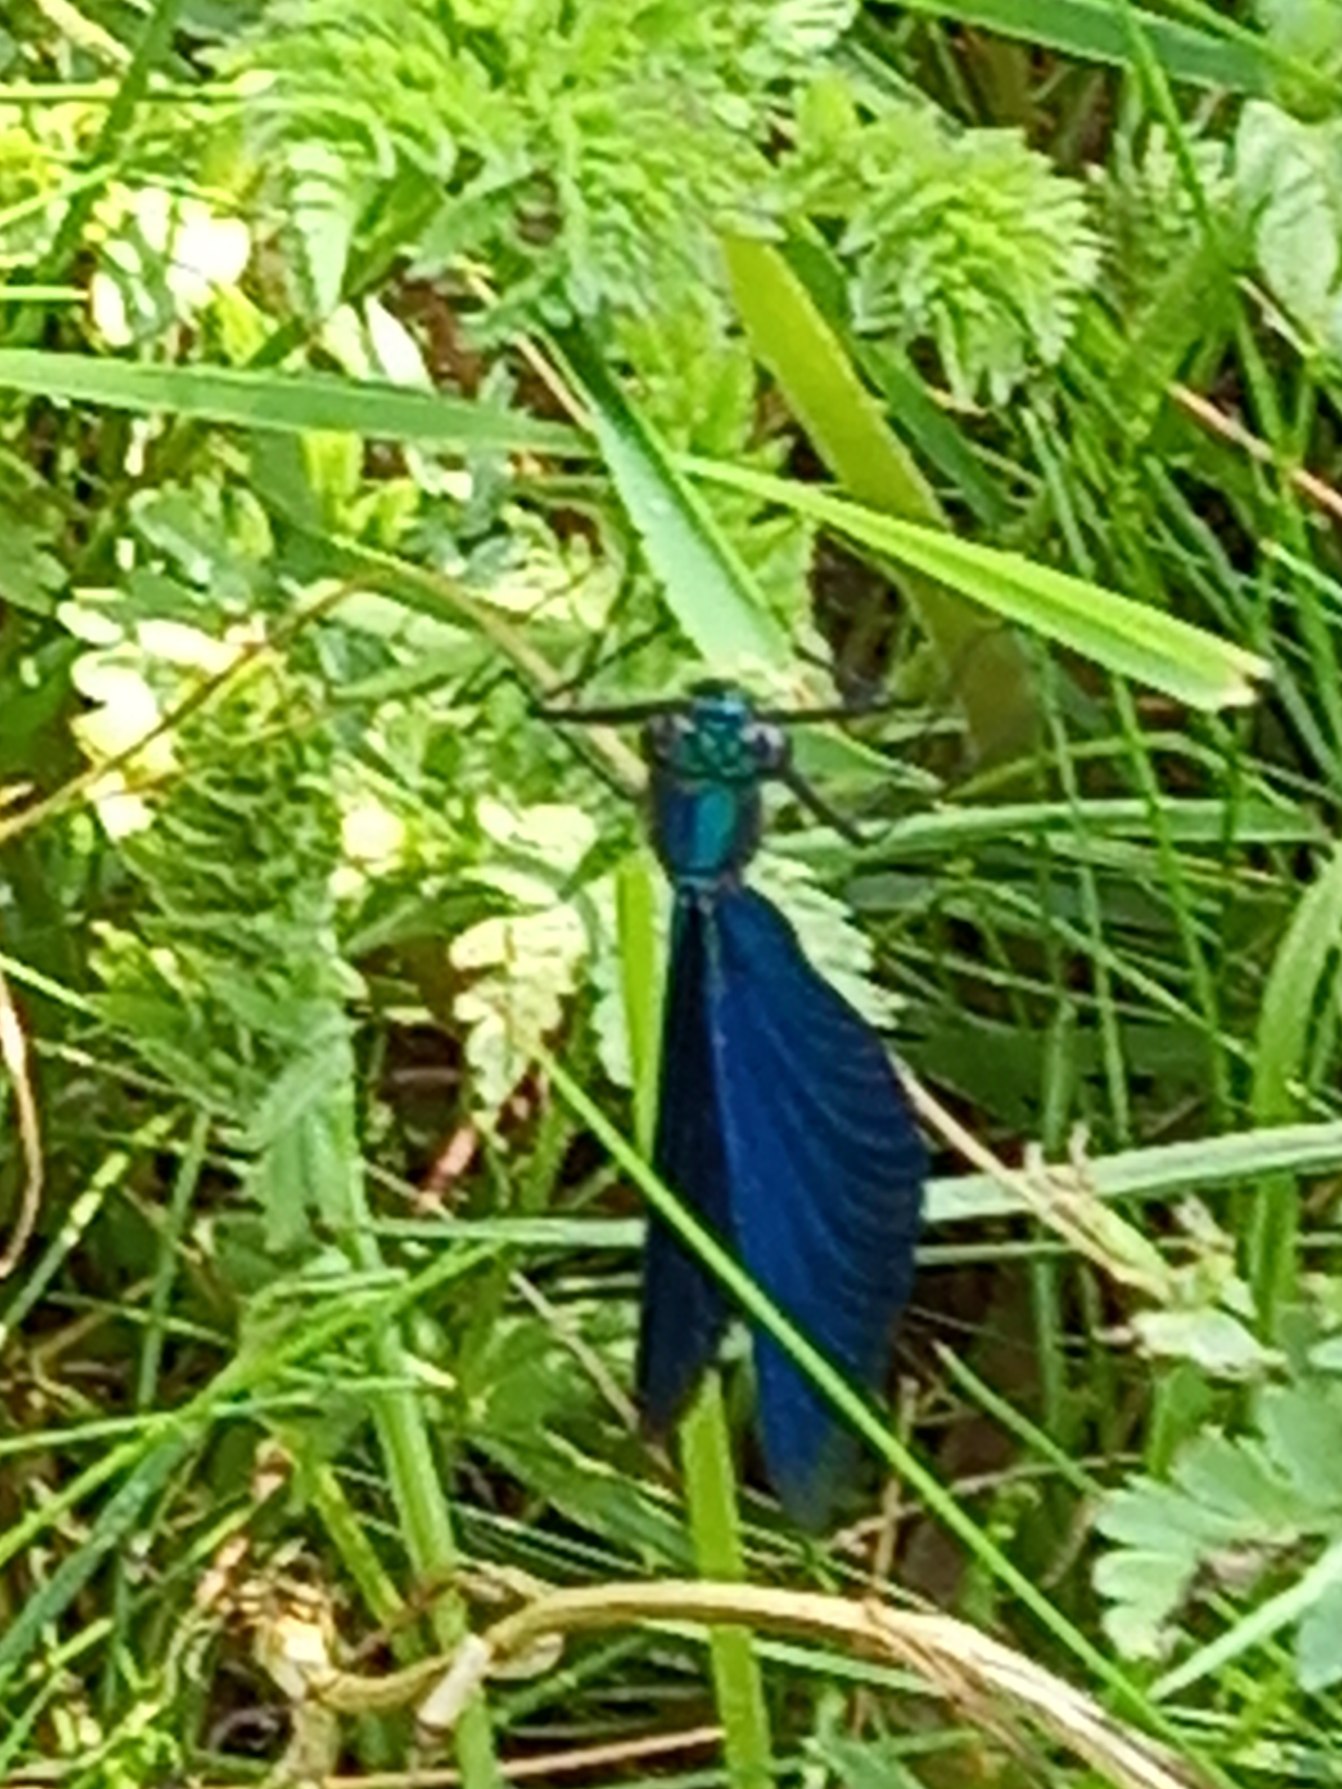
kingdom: Animalia
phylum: Arthropoda
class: Insecta
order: Odonata
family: Calopterygidae
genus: Calopteryx
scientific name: Calopteryx virgo
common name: Blåvinget pragtvandnymfe
